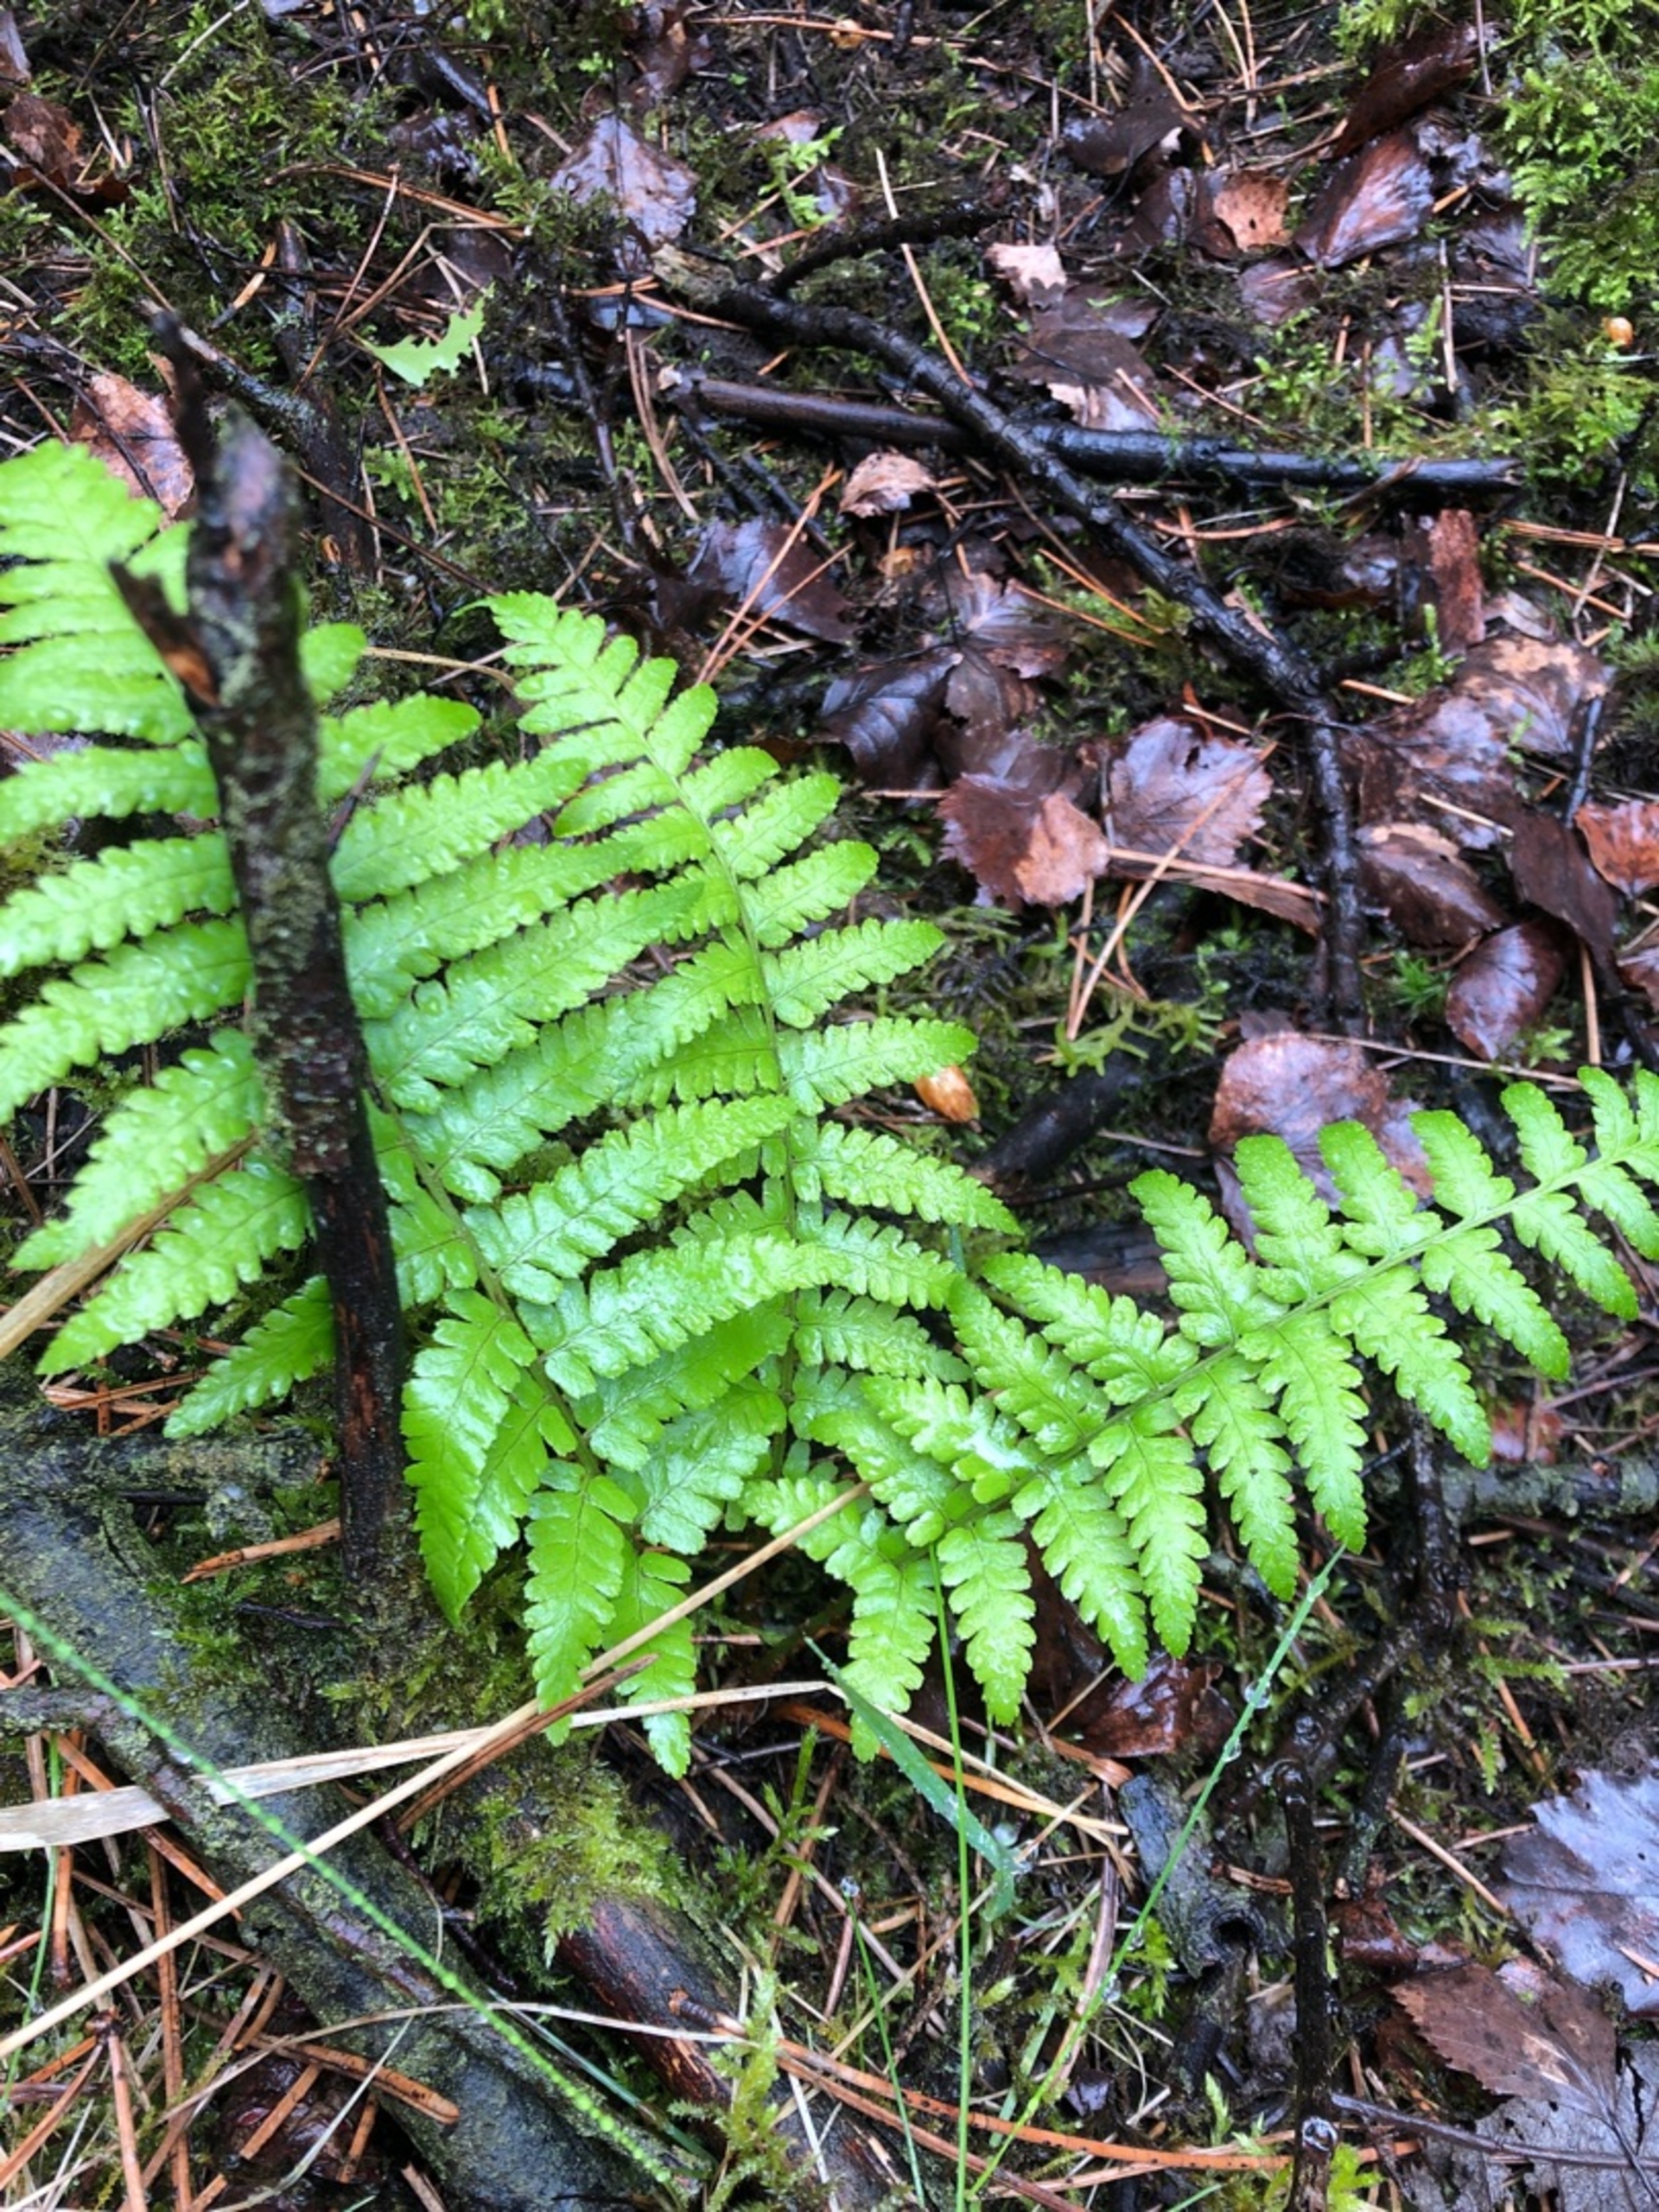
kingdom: Plantae
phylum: Tracheophyta
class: Polypodiopsida
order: Polypodiales
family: Dryopteridaceae
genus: Dryopteris
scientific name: Dryopteris filix-mas
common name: Almindelig mangeløv
